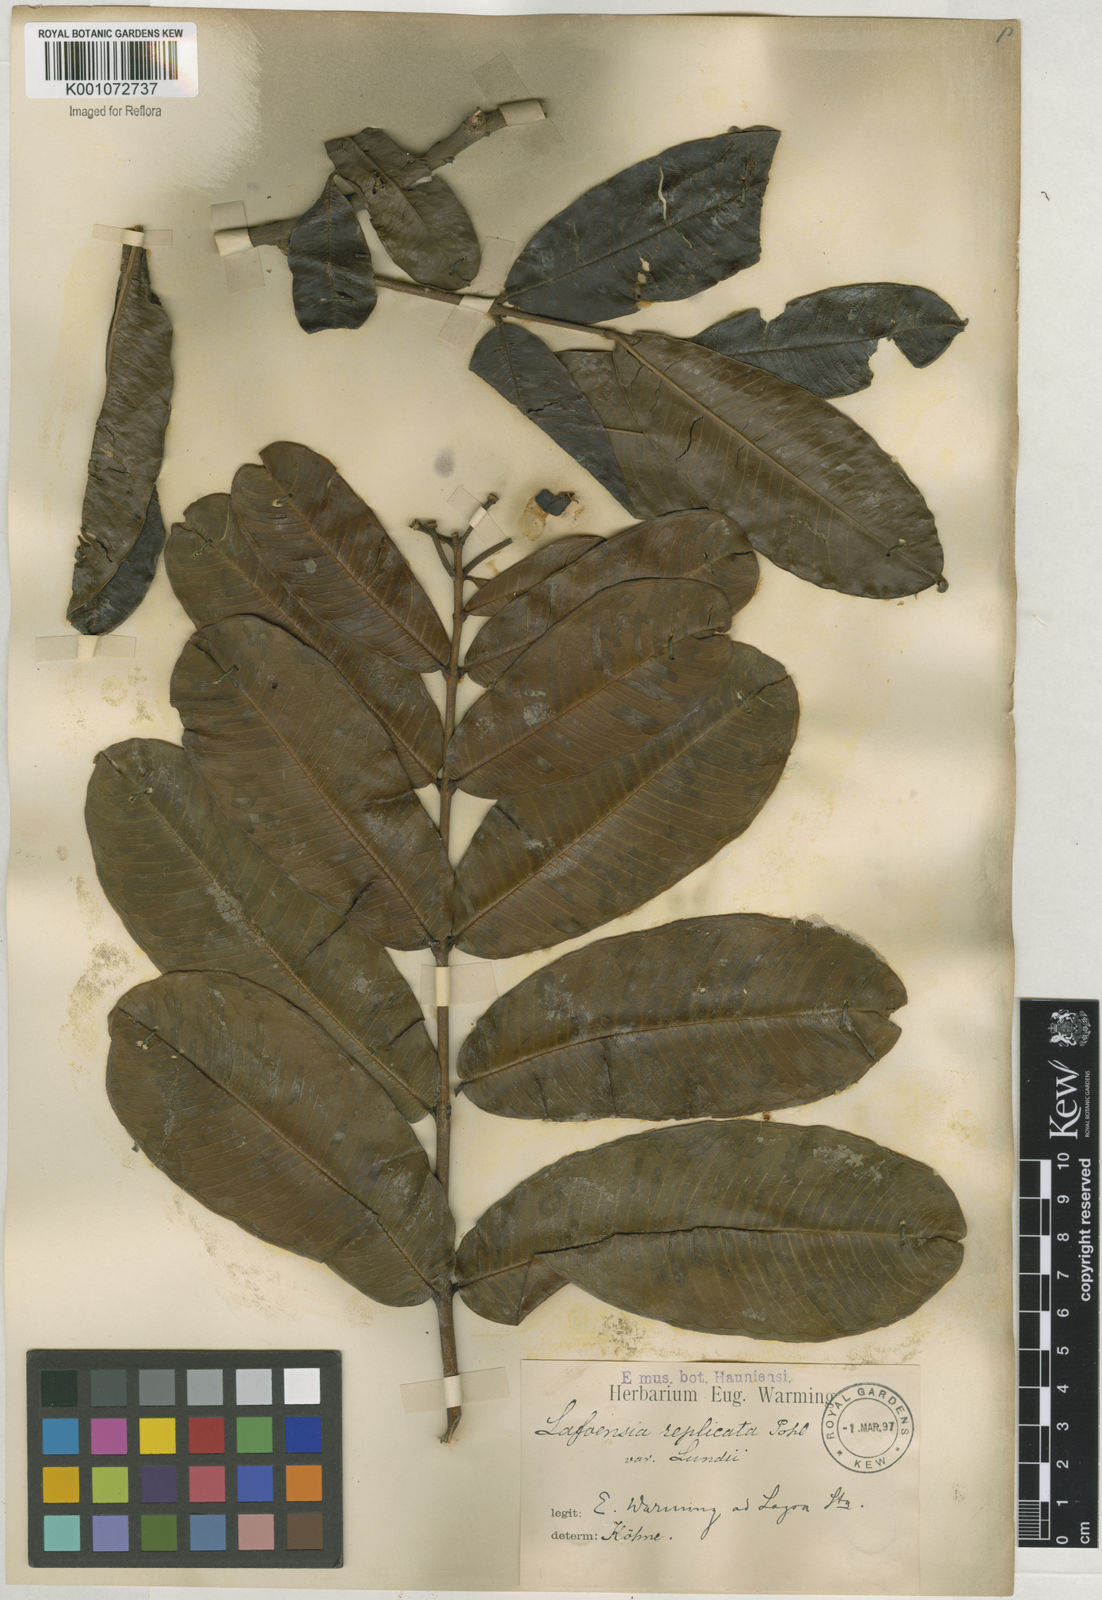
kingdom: Plantae
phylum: Tracheophyta
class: Magnoliopsida
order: Myrtales
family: Lythraceae
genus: Lafoensia
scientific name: Lafoensia vandelliana
